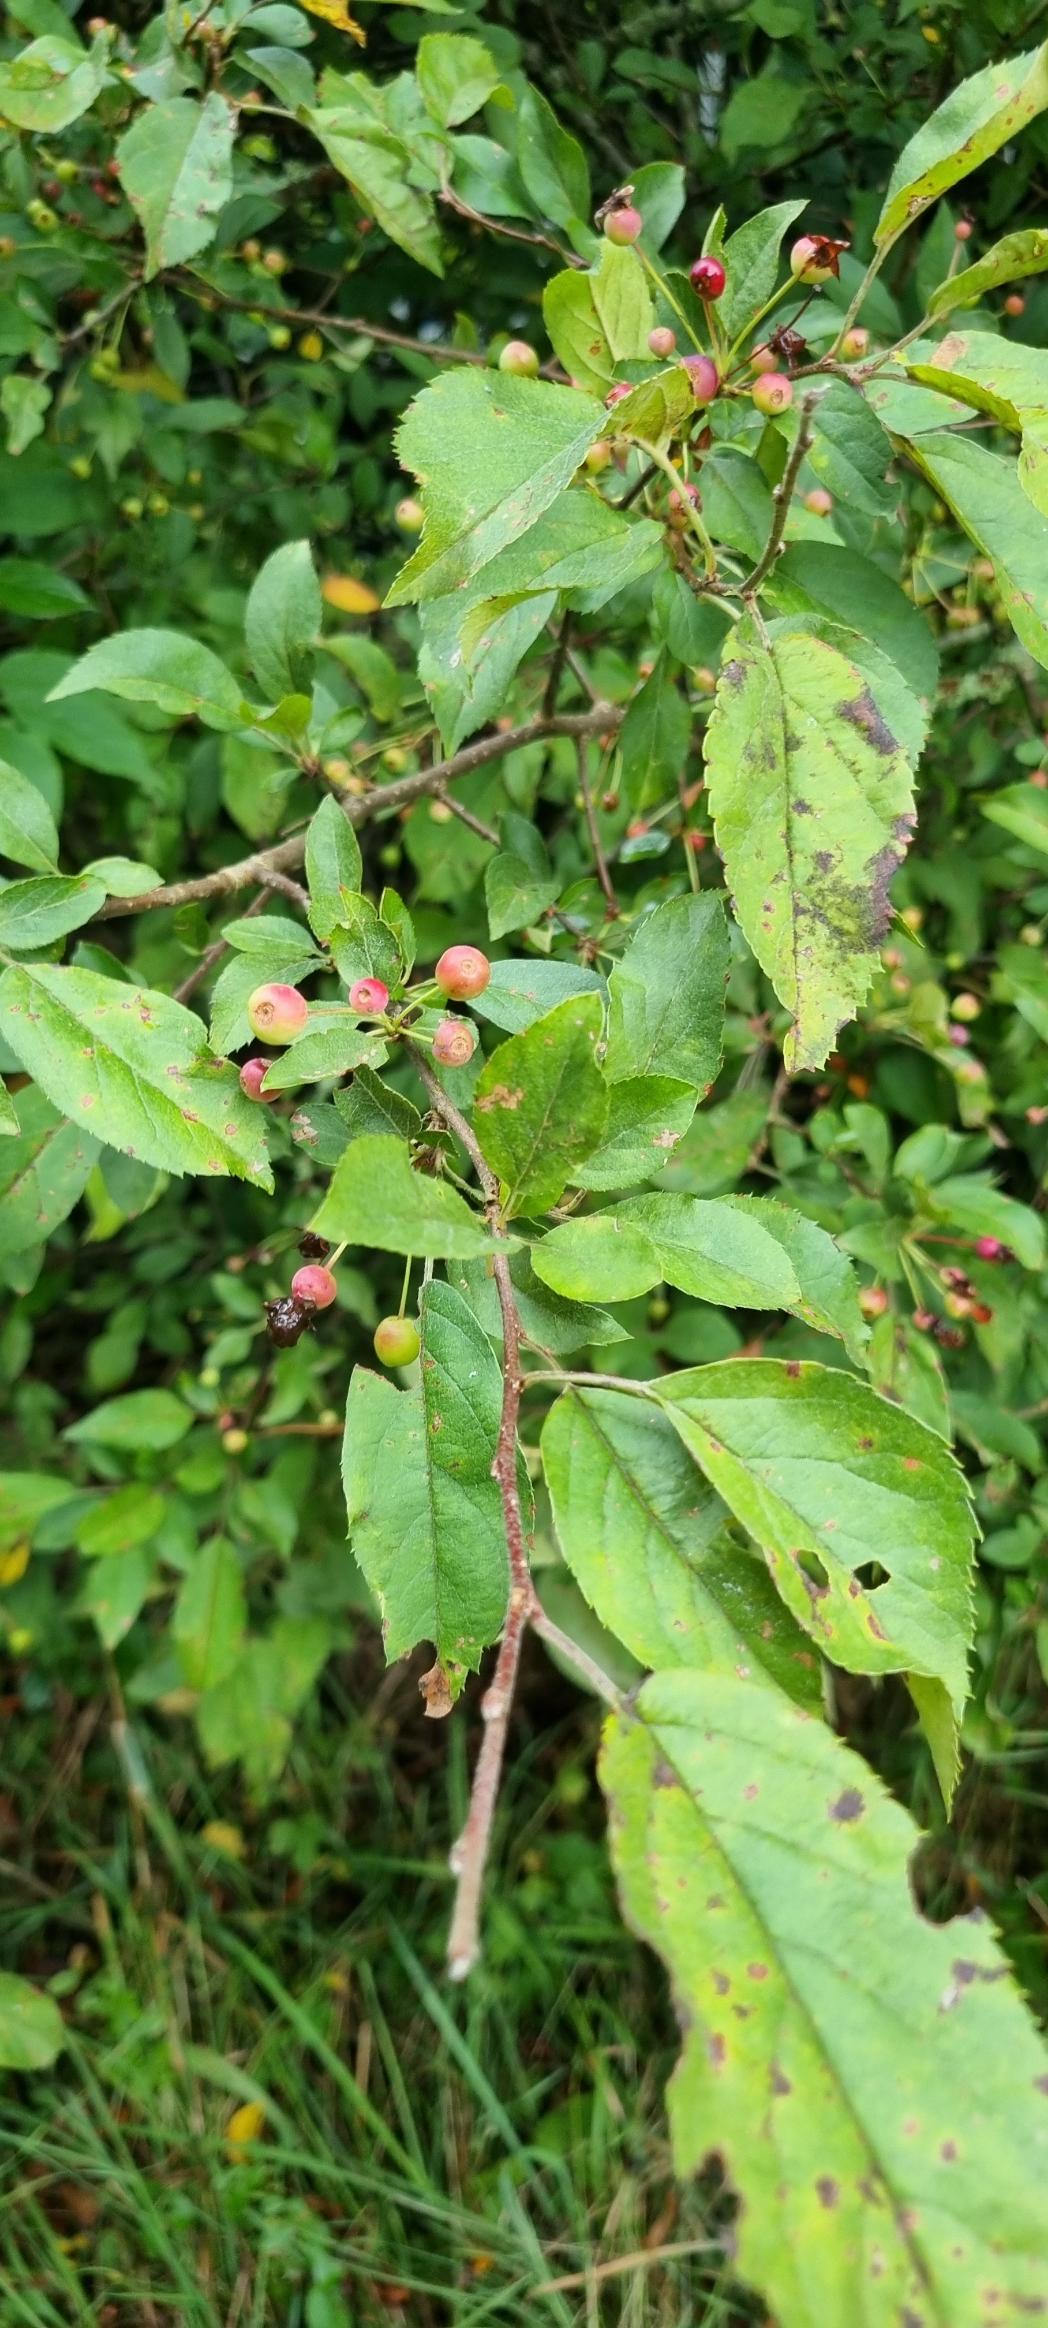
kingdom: Plantae
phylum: Tracheophyta
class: Magnoliopsida
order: Rosales
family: Rosaceae
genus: Malus
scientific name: Malus
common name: Æbleslægten
